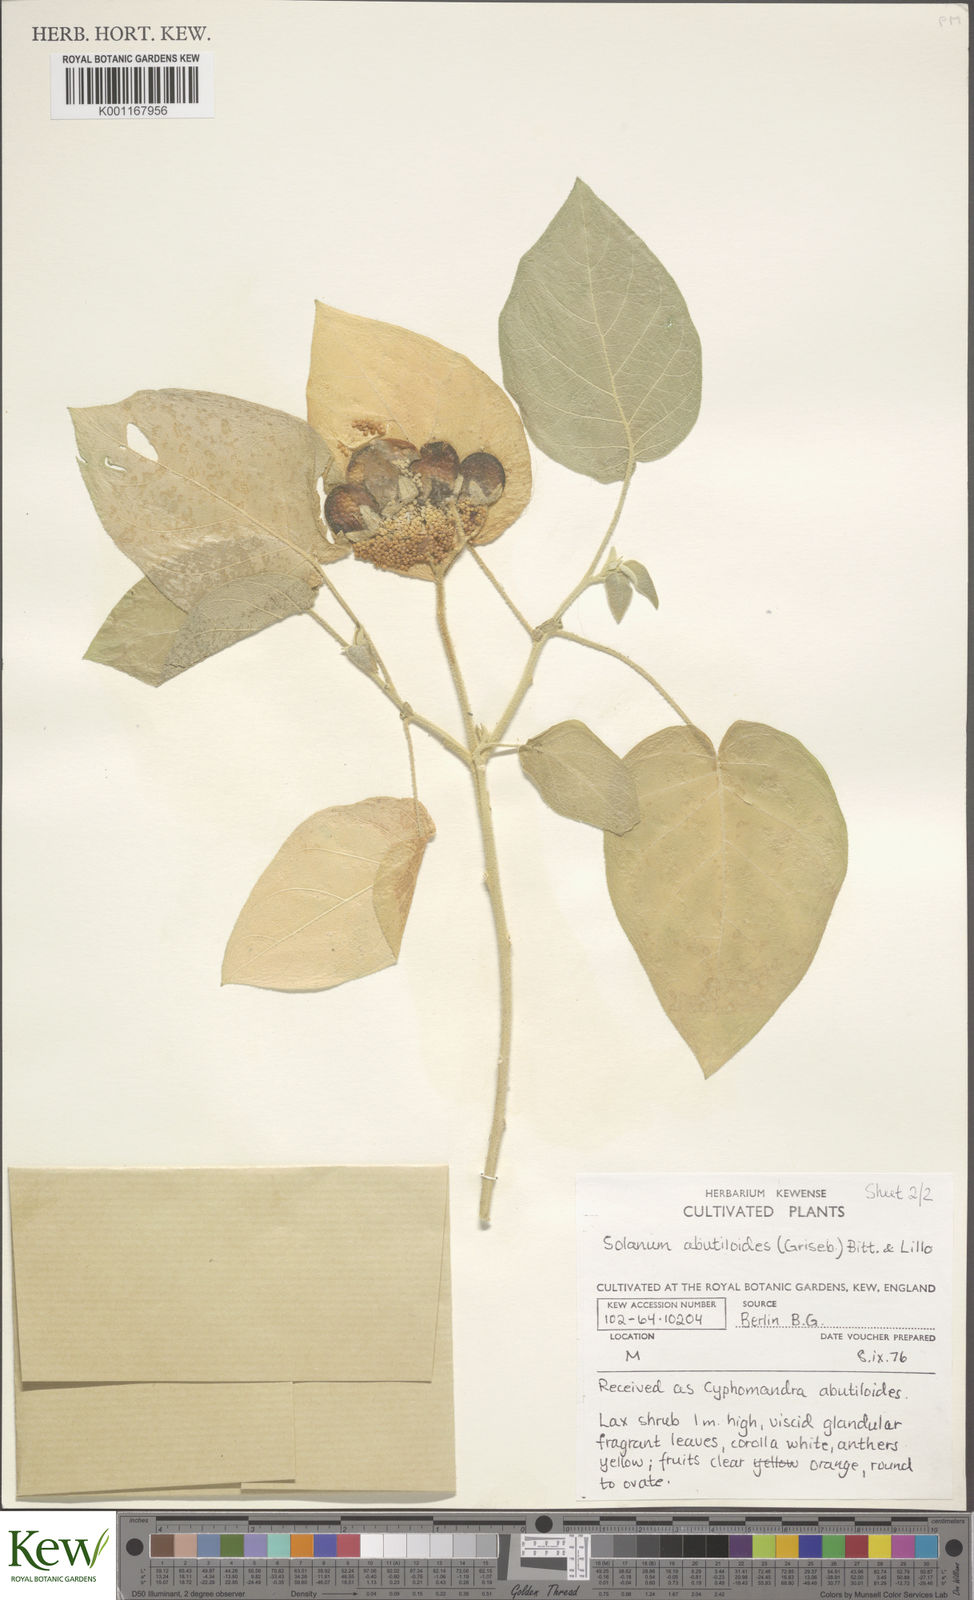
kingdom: Plantae
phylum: Tracheophyta
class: Magnoliopsida
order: Solanales
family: Solanaceae
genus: Solanum
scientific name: Solanum abutiloides
